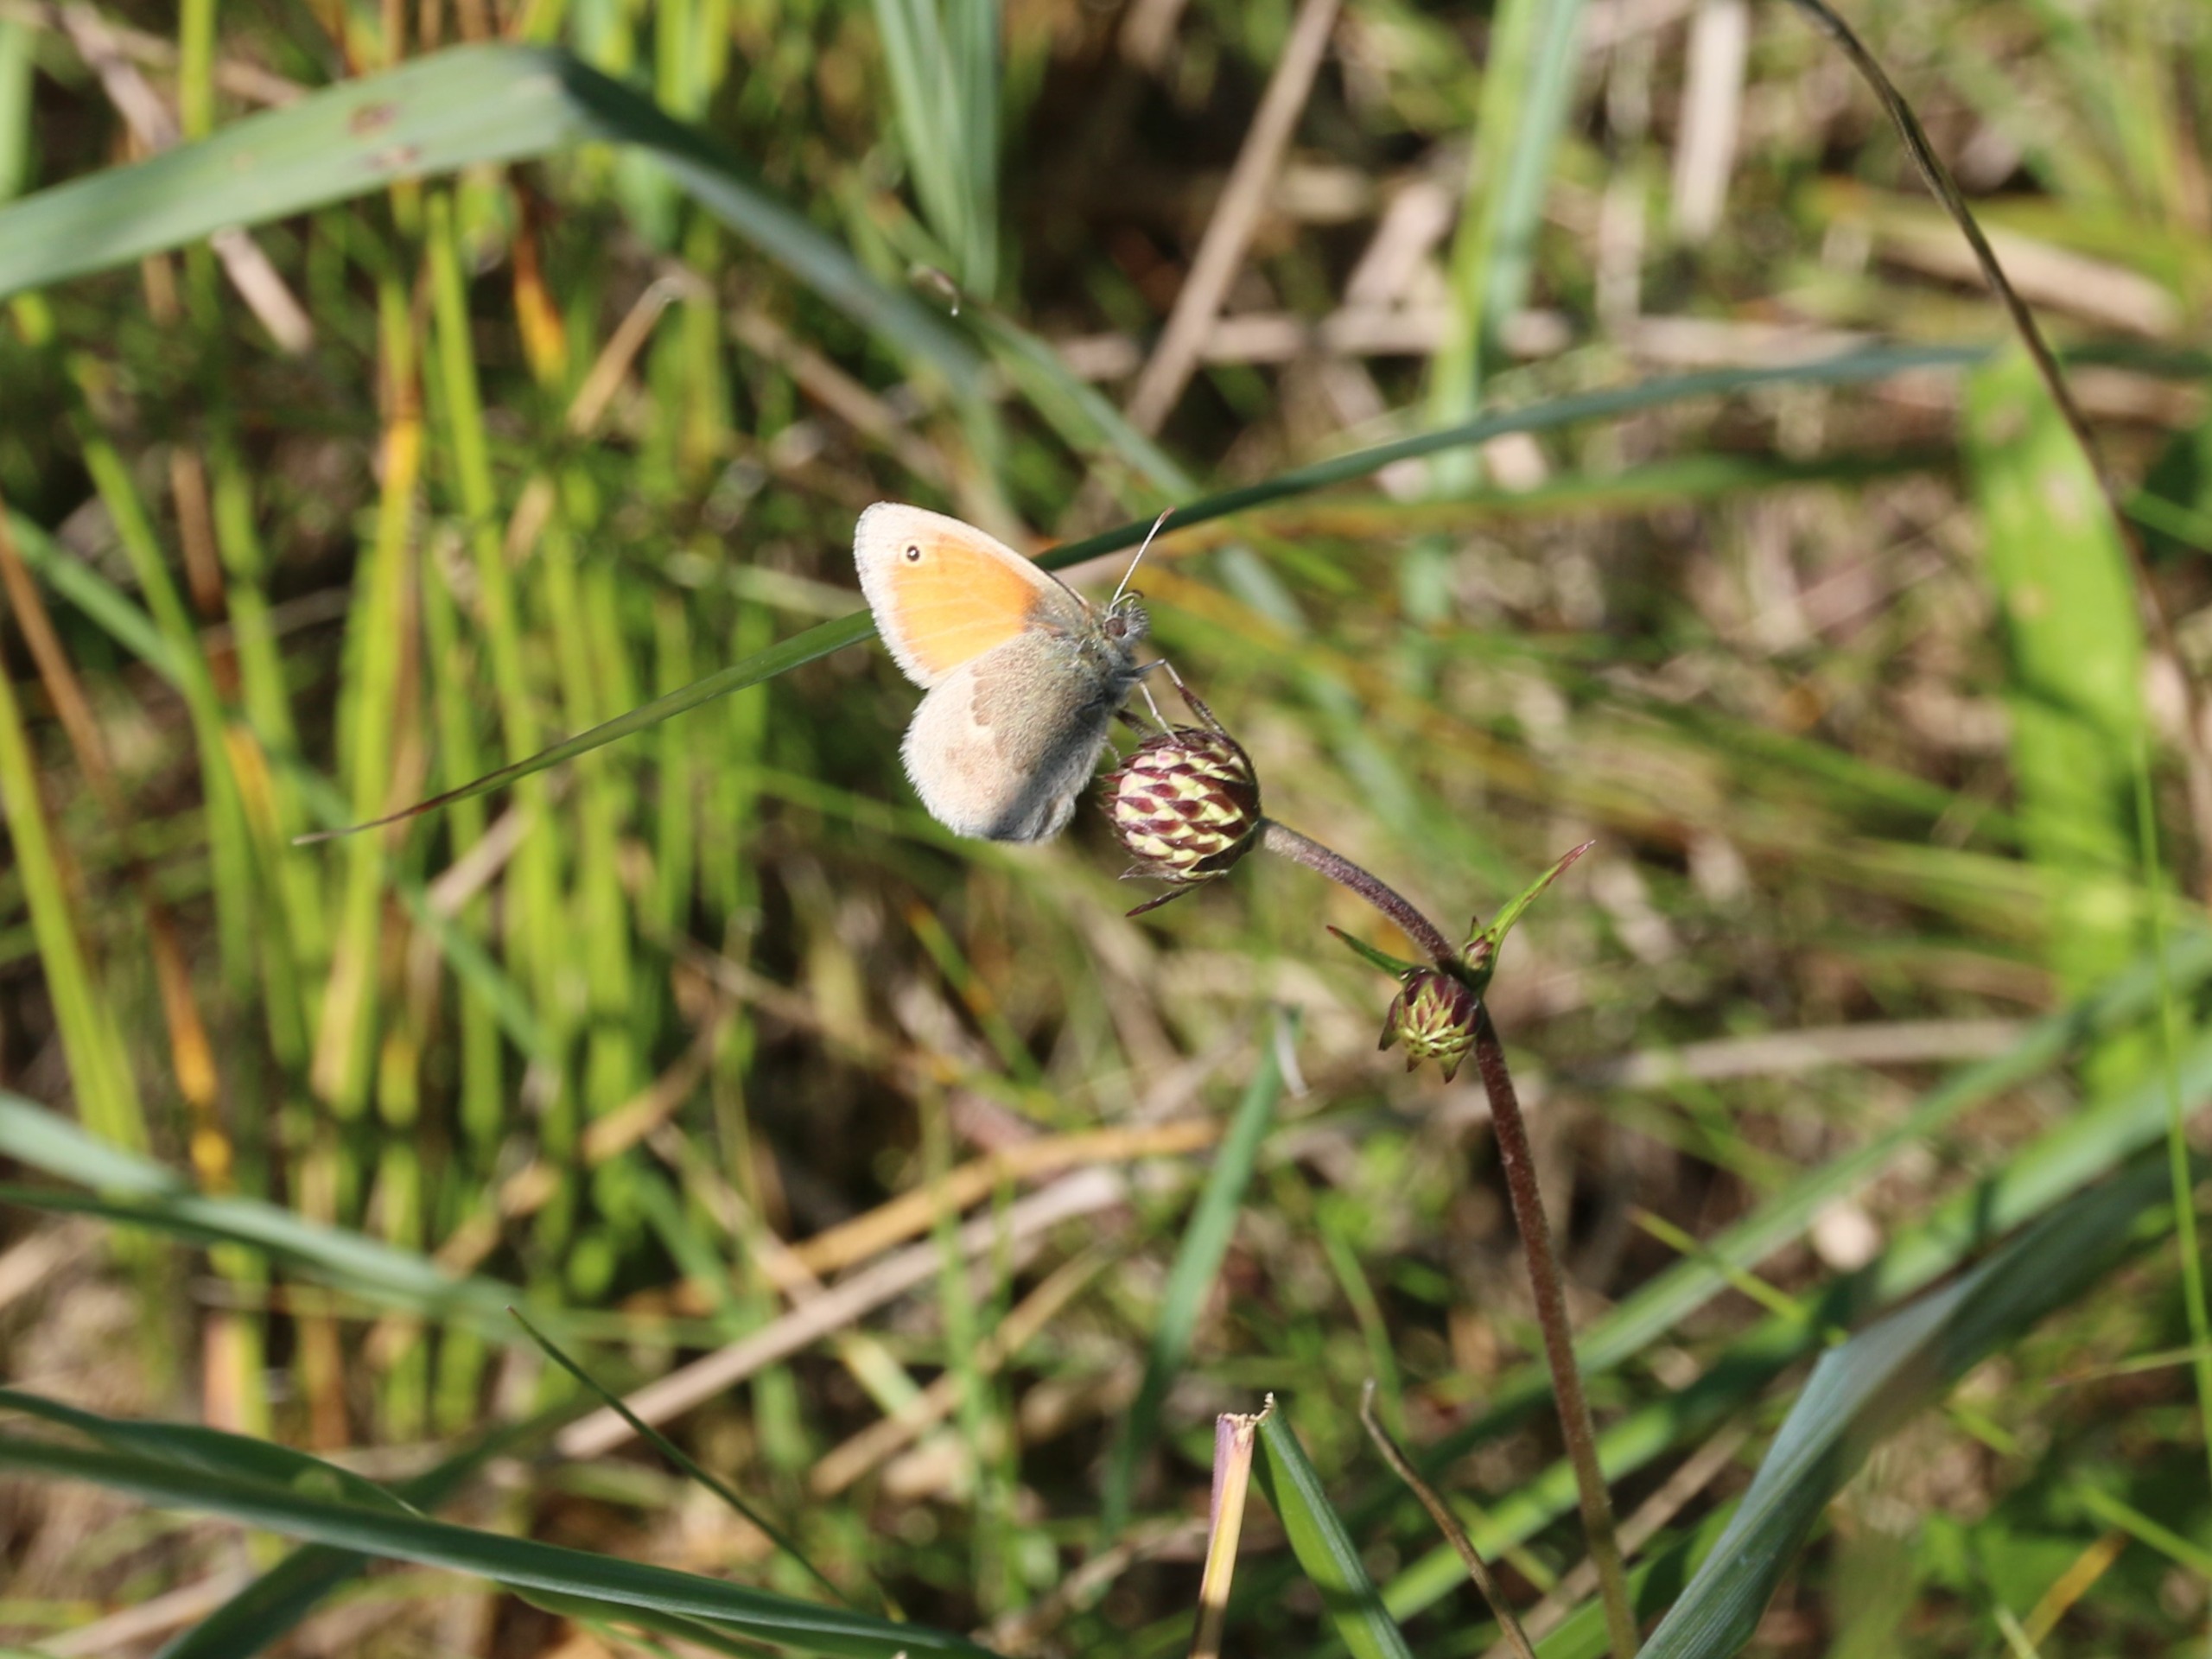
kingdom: Animalia
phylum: Arthropoda
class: Insecta
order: Lepidoptera
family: Nymphalidae
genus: Coenonympha
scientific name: Coenonympha pamphilus
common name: Okkergul randøje
